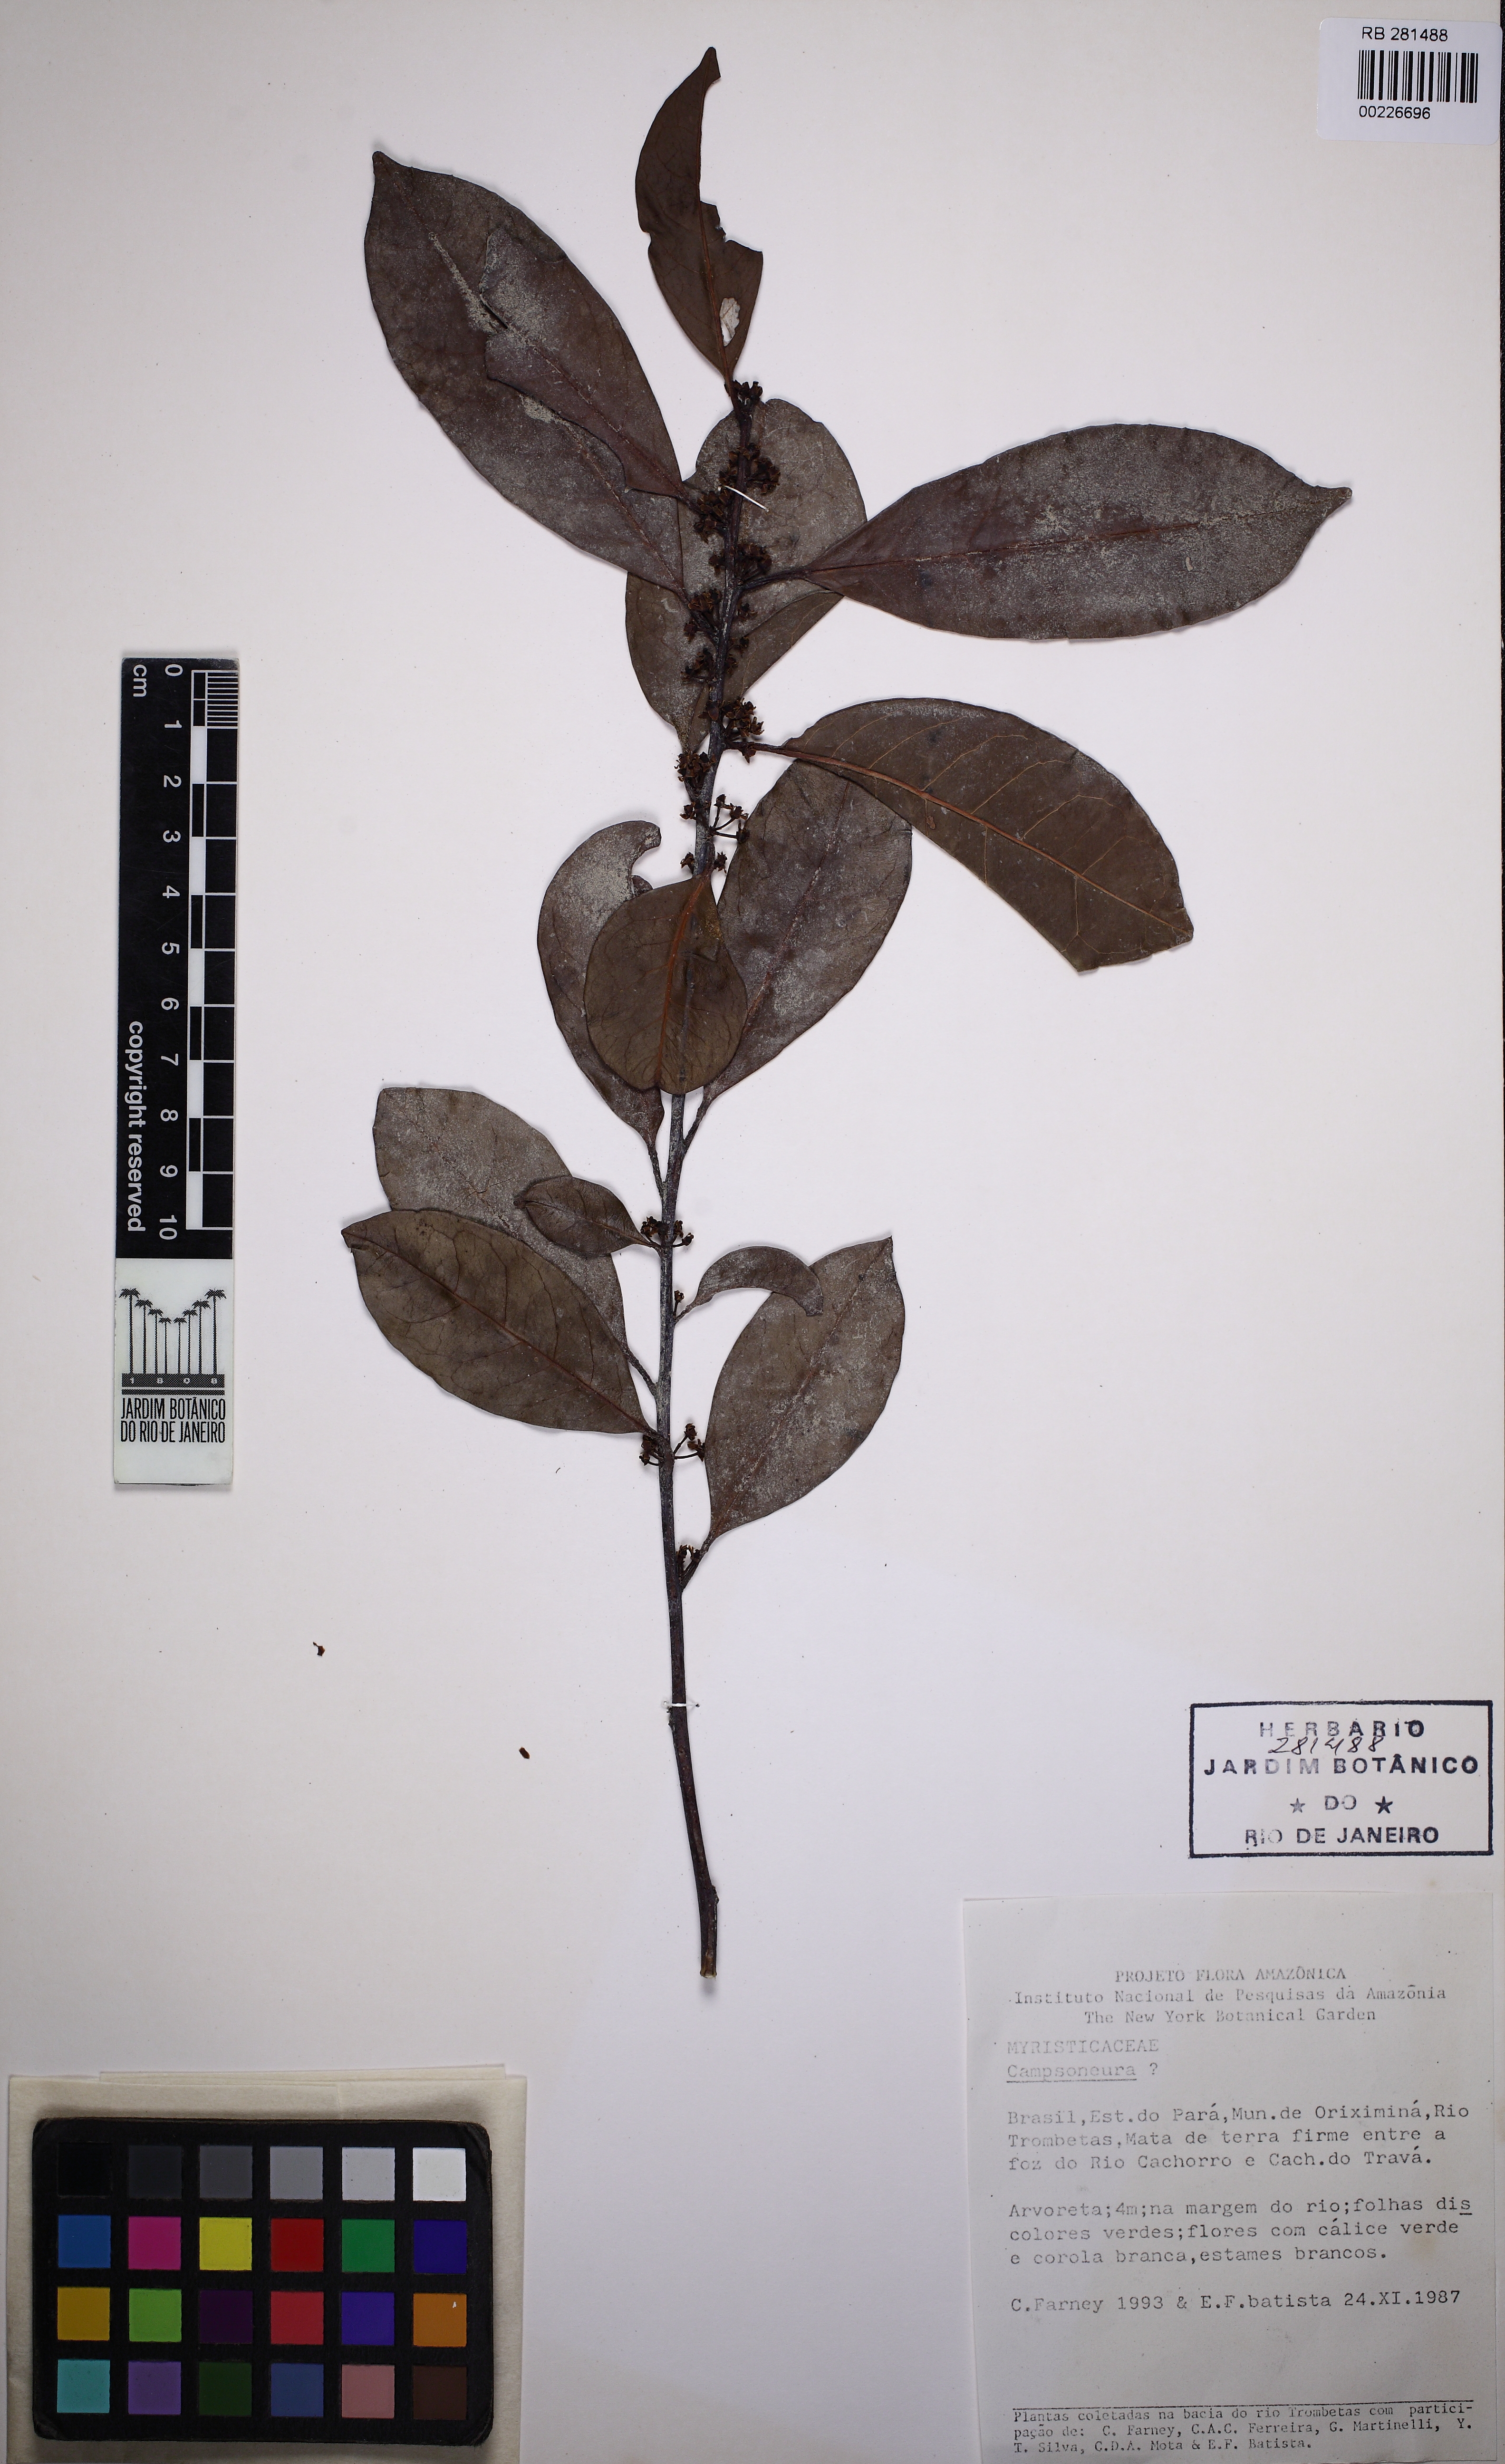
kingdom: Plantae
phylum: Tracheophyta
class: Magnoliopsida
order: Magnoliales
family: Myristicaceae
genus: Compsoneura
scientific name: Compsoneura
